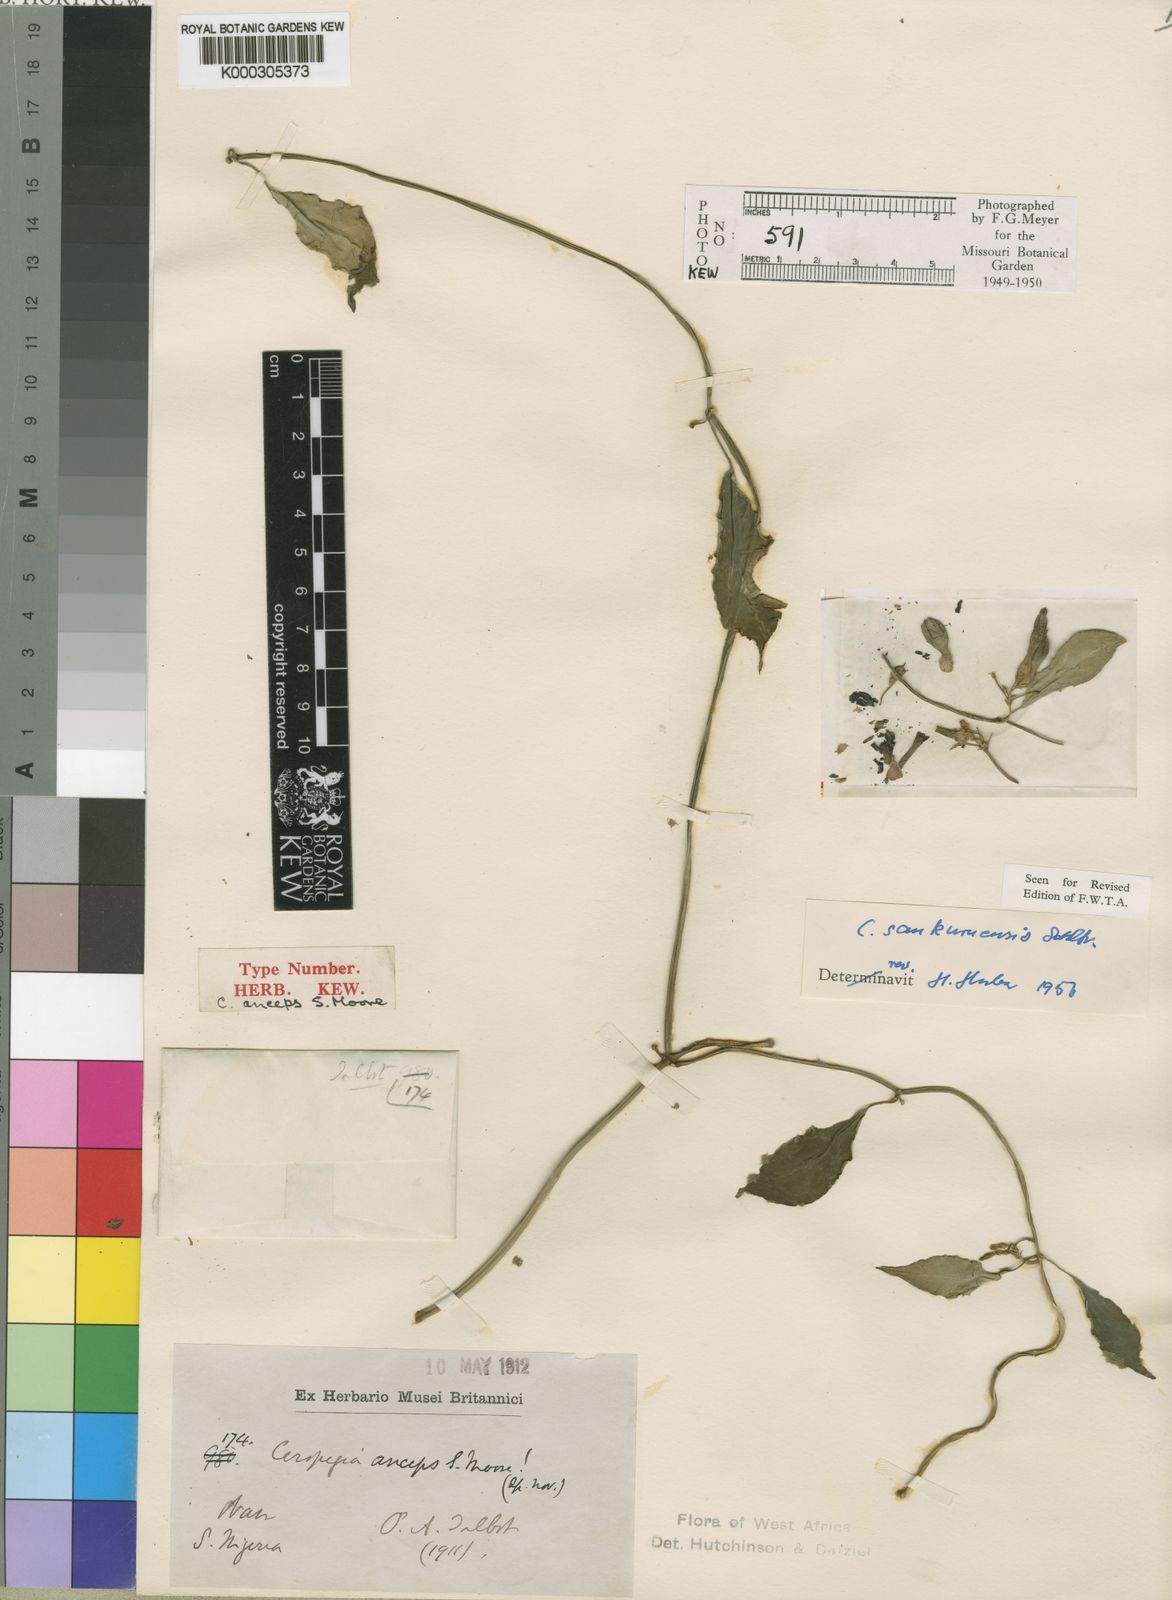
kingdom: Plantae
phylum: Tracheophyta
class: Magnoliopsida
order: Gentianales
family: Apocynaceae
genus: Ceropegia
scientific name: Ceropegia sankuruensis
